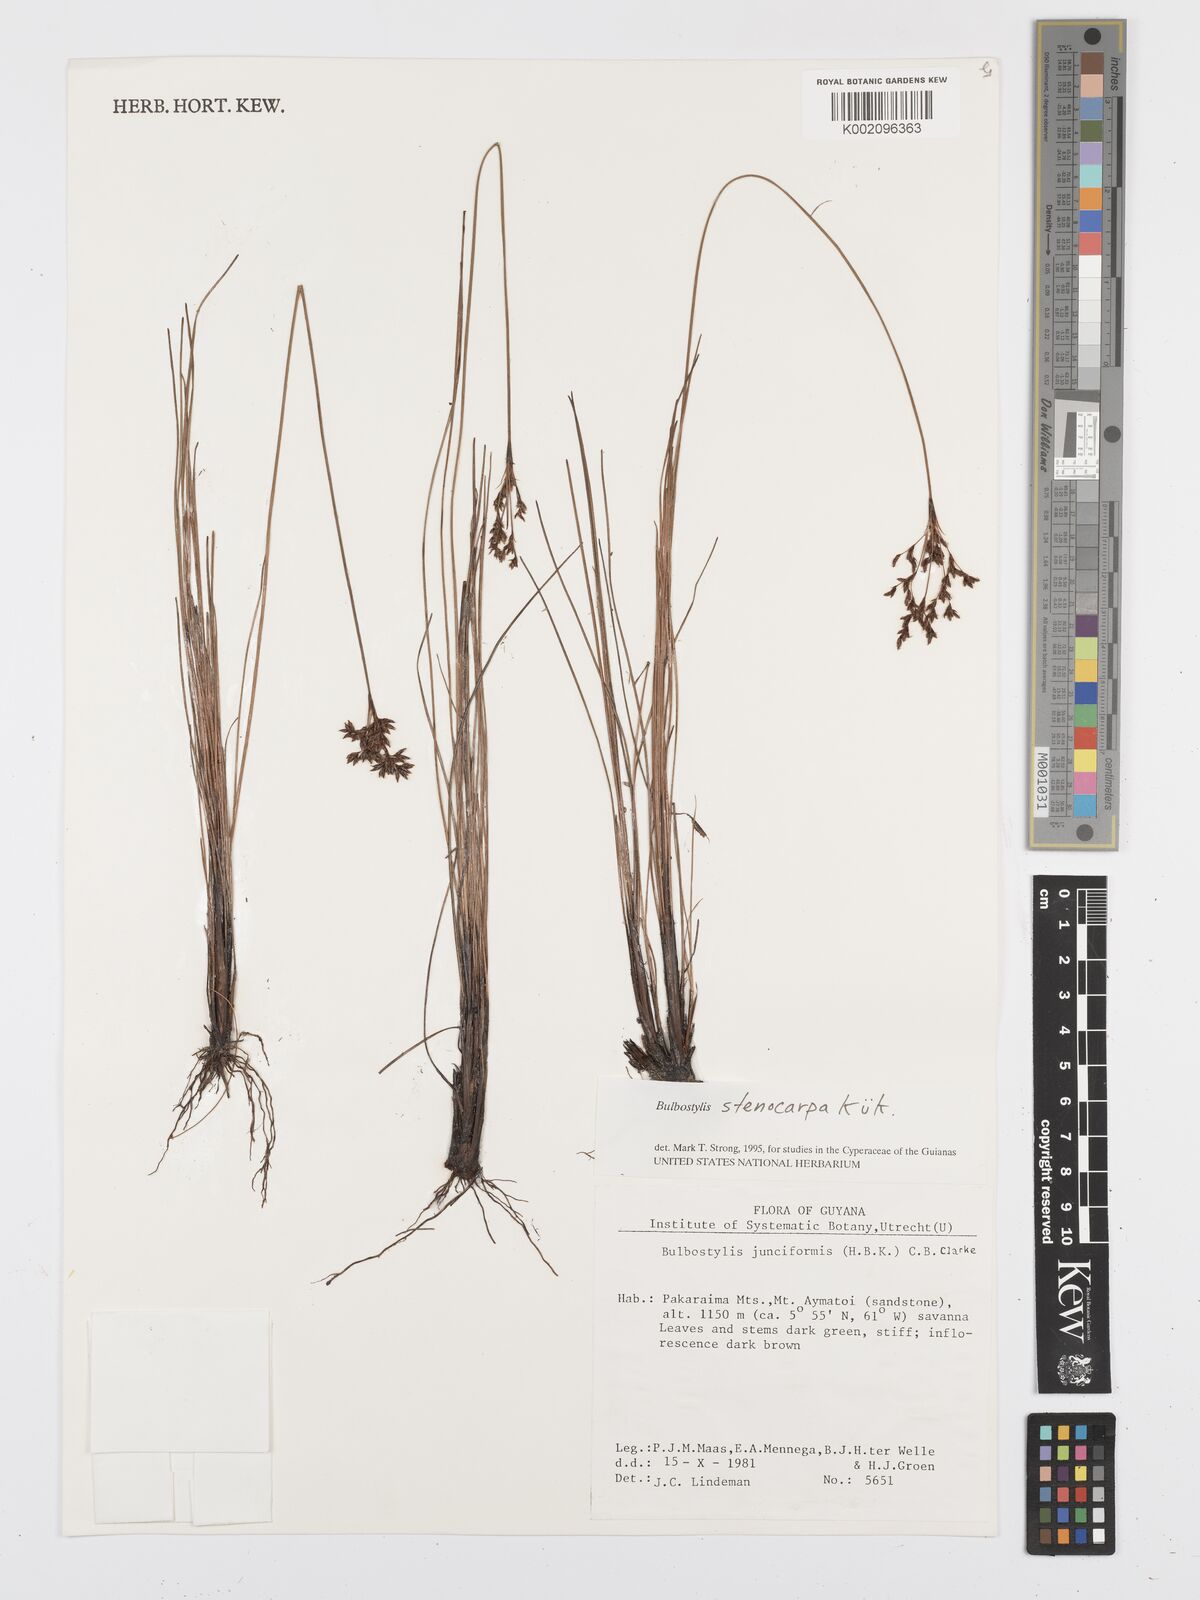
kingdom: Plantae
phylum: Tracheophyta
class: Liliopsida
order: Poales
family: Cyperaceae
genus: Bulbostylis
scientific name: Bulbostylis stenocarpa
